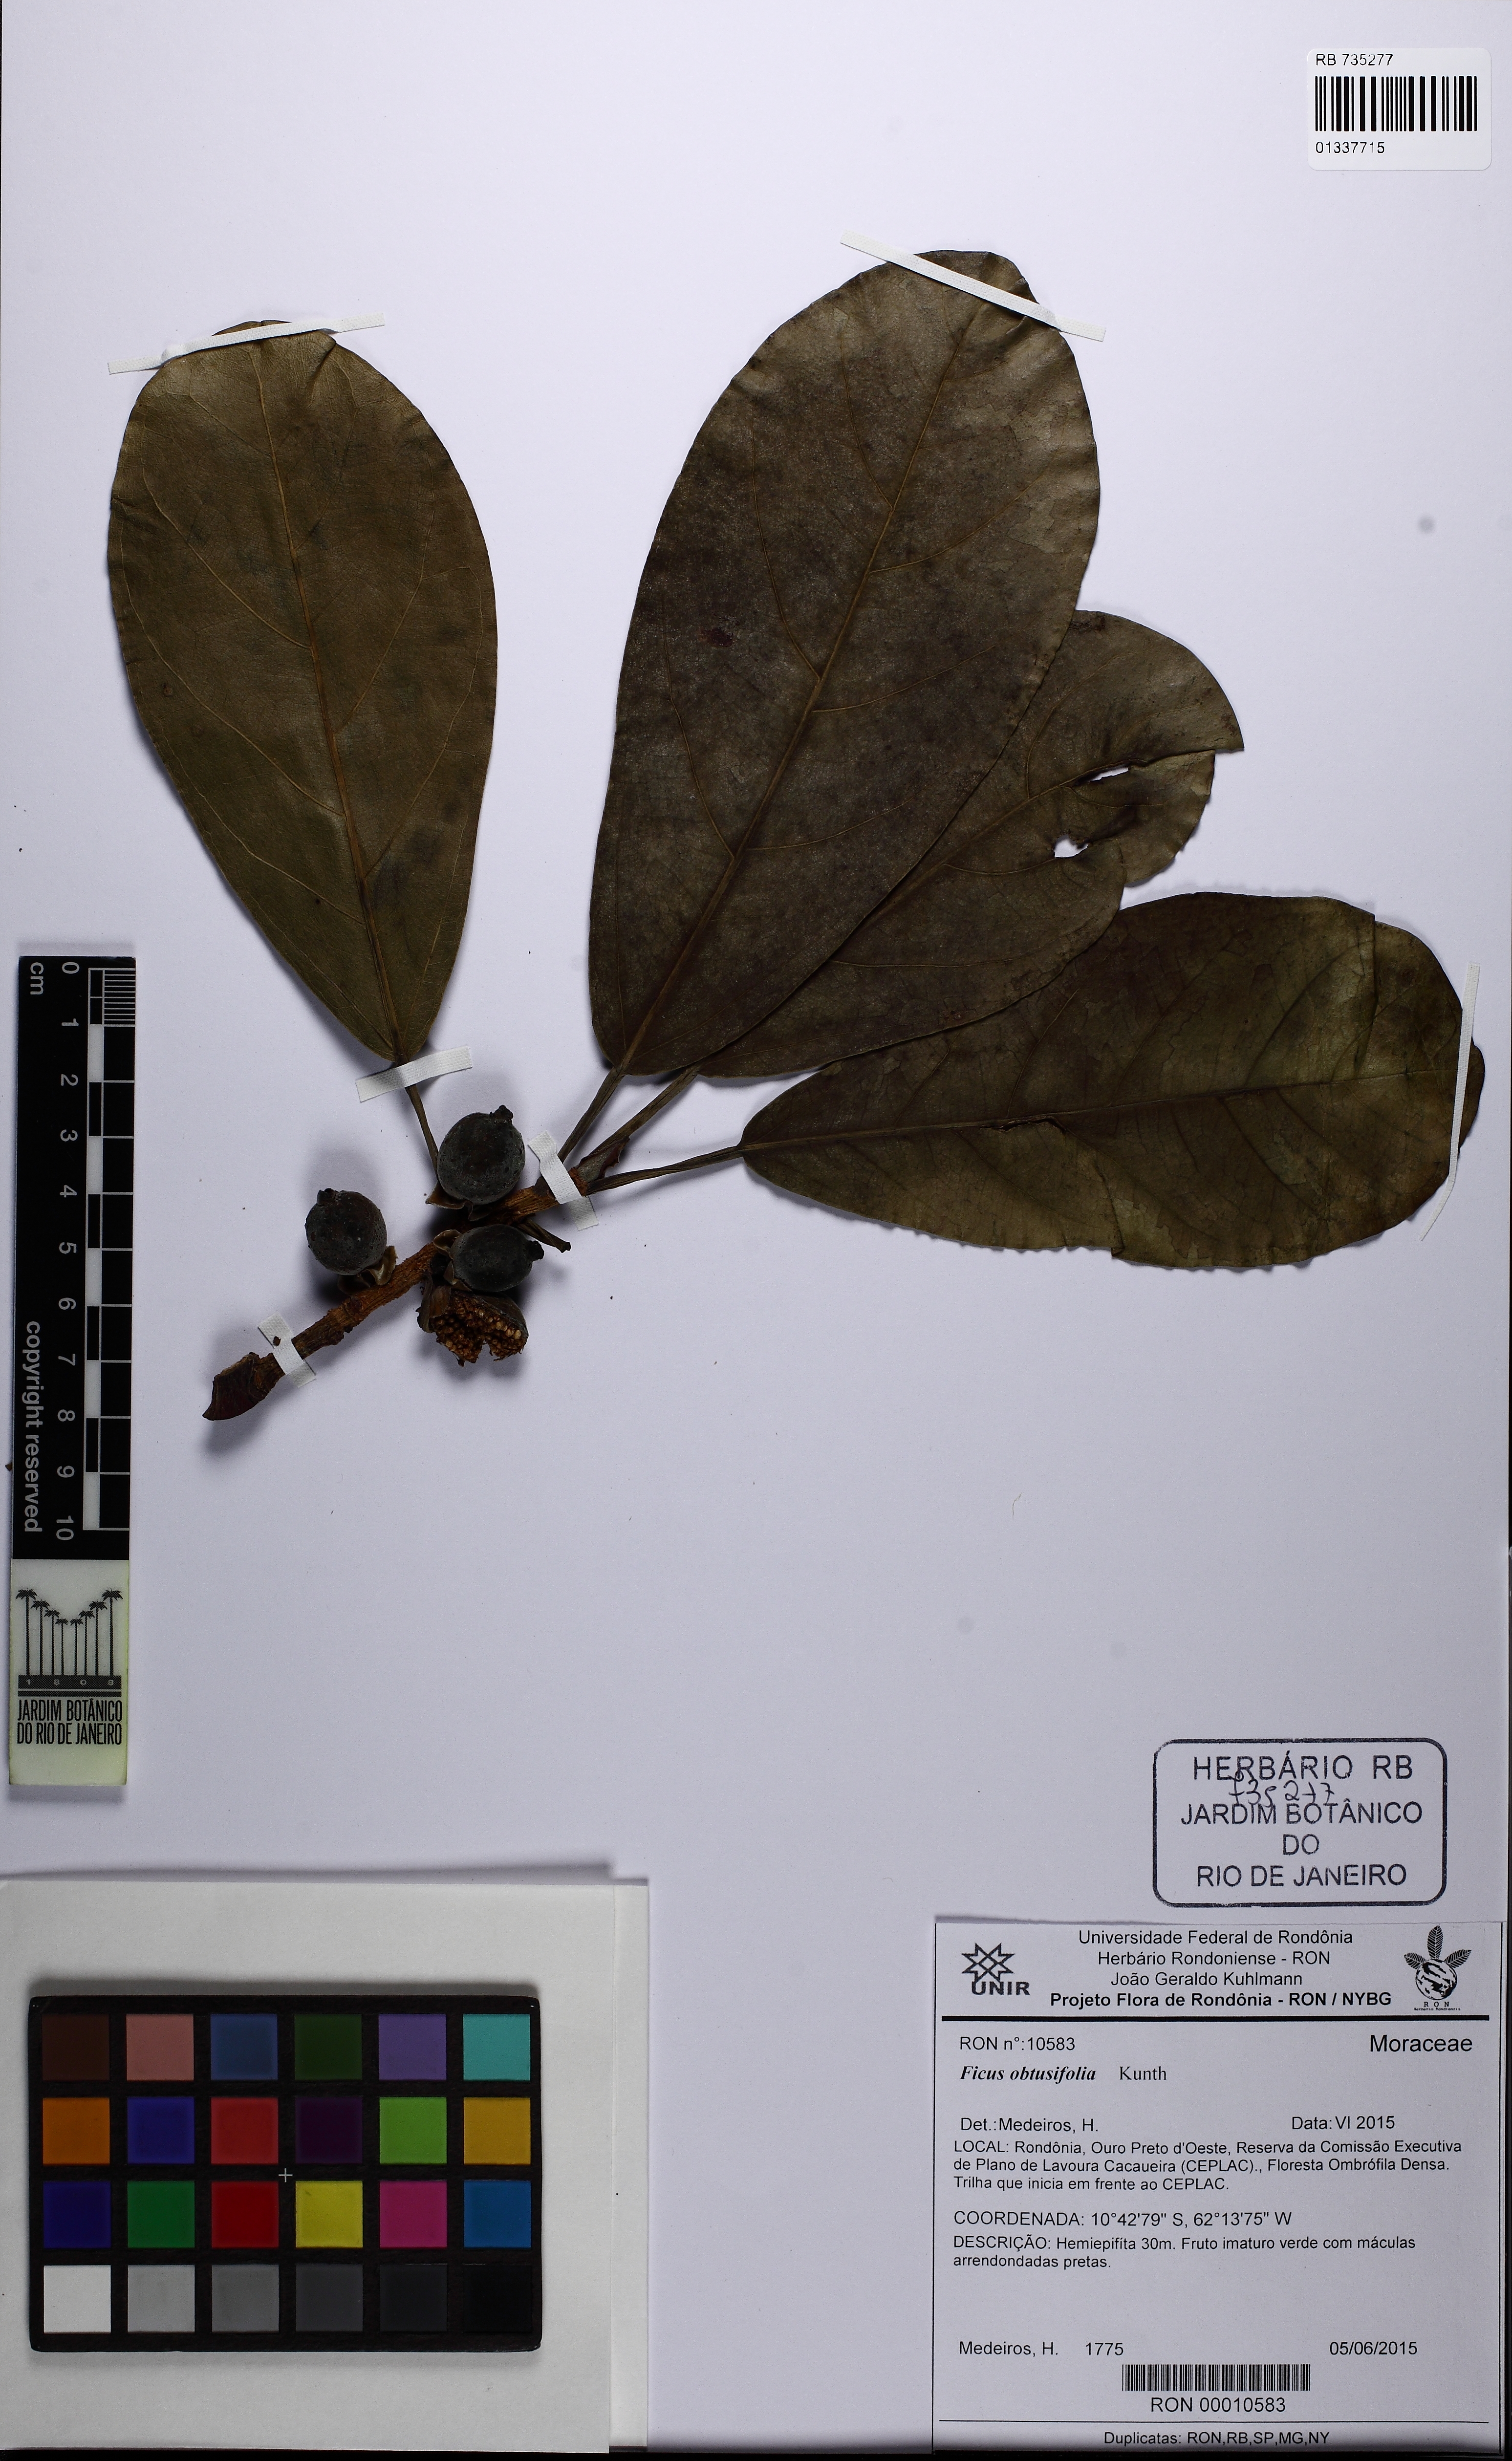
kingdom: Plantae
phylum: Tracheophyta
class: Magnoliopsida
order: Rosales
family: Moraceae
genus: Ficus
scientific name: Ficus obtusifolia
